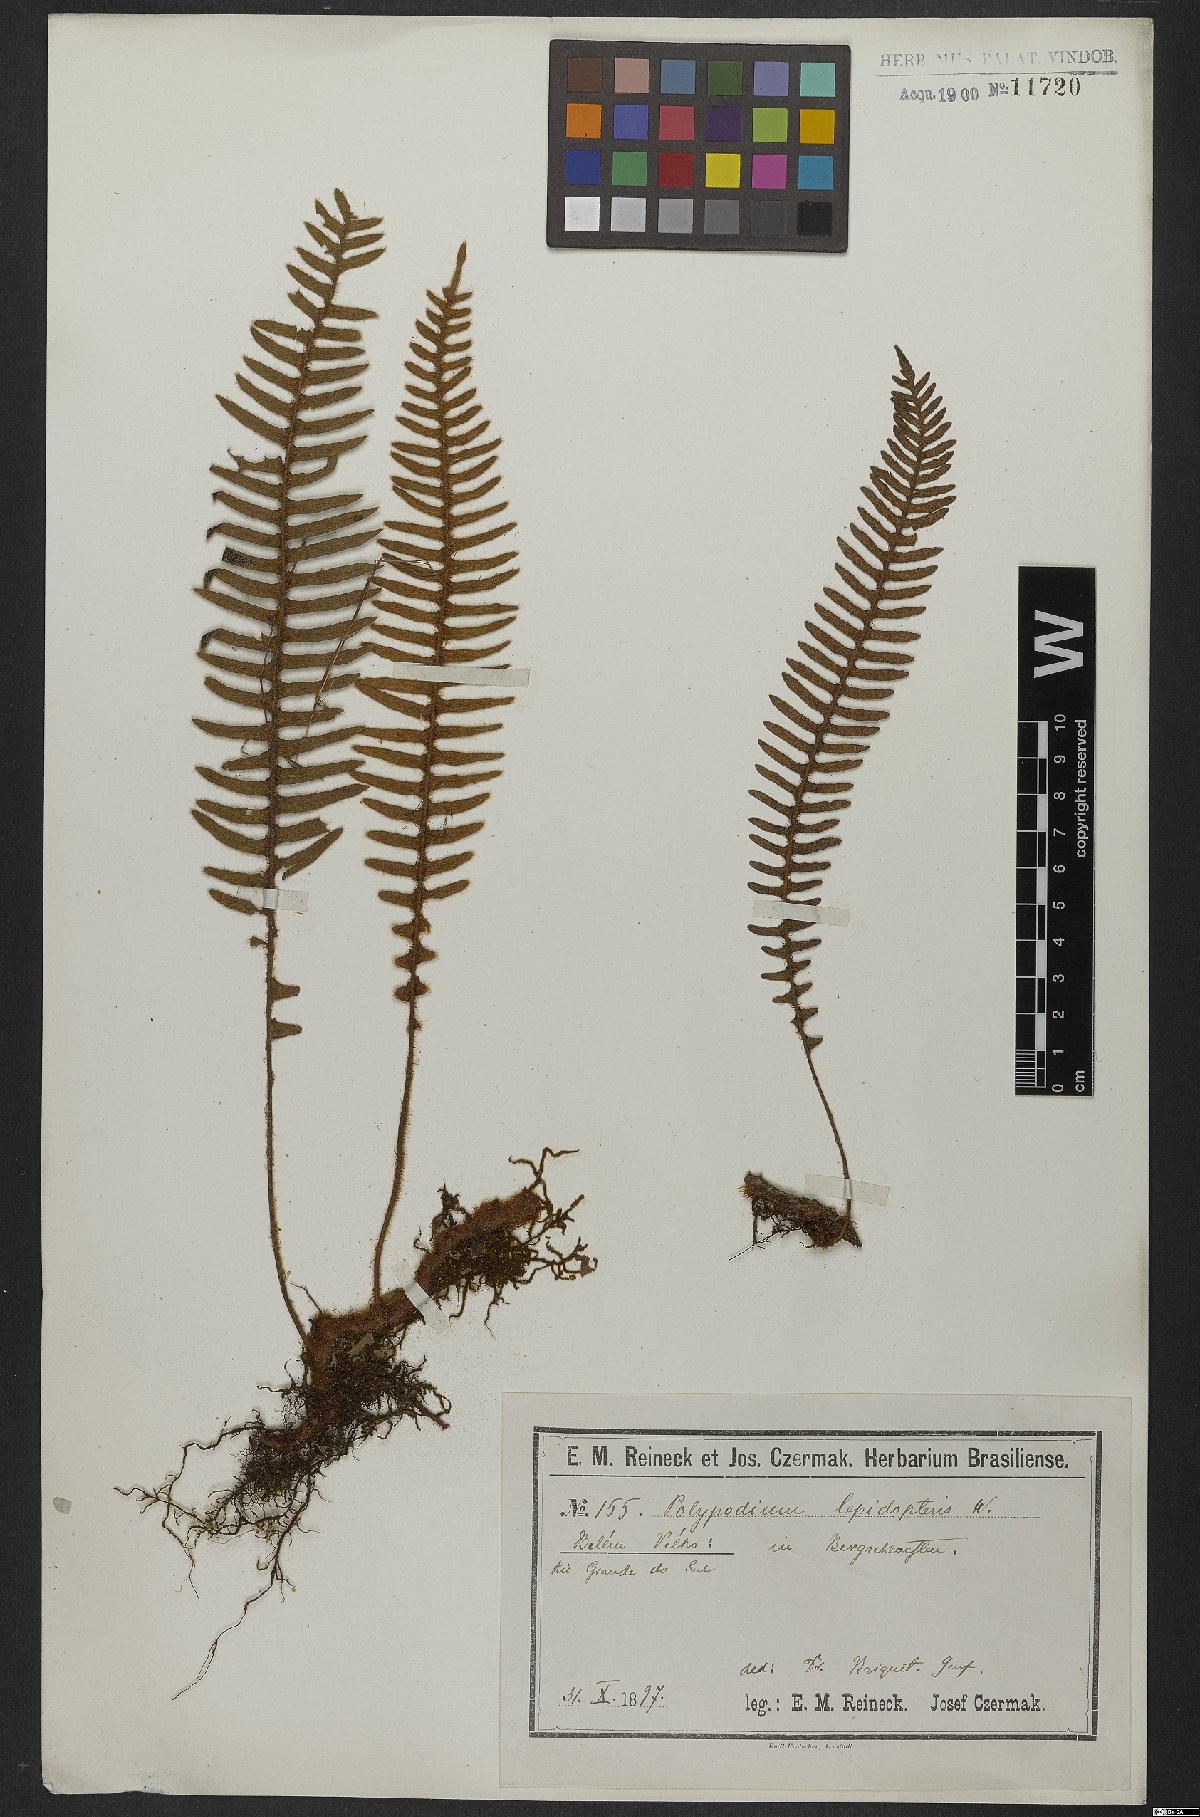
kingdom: Plantae
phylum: Tracheophyta
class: Polypodiopsida
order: Polypodiales
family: Polypodiaceae
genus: Pleopeltis
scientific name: Pleopeltis lepidopteris
